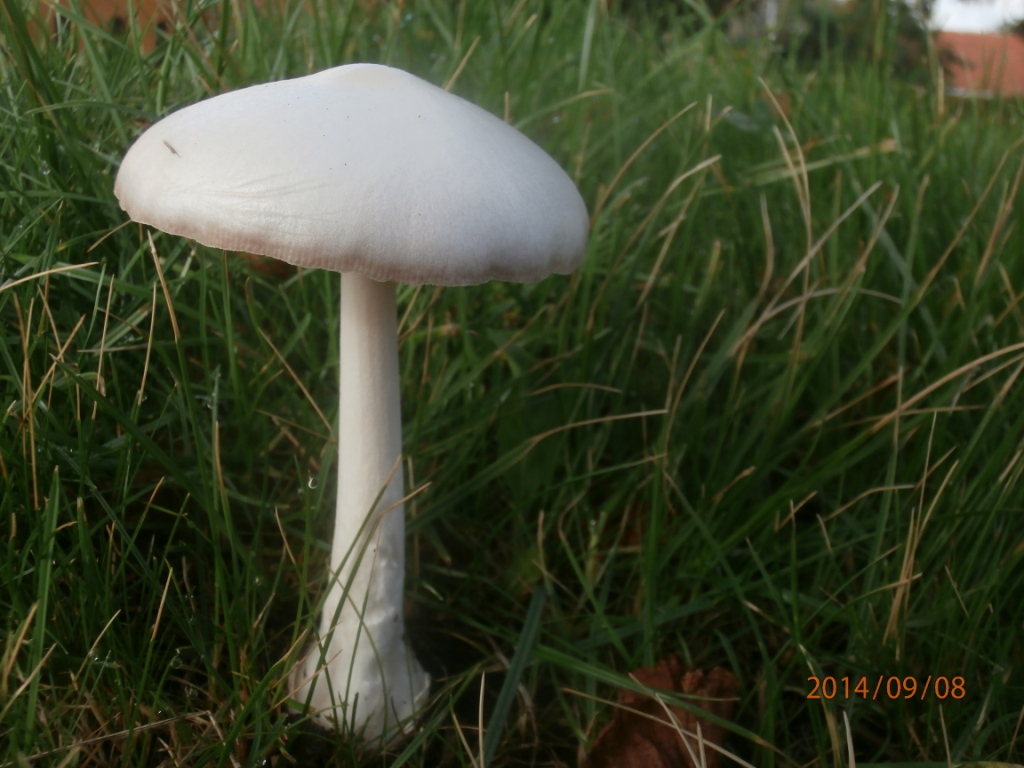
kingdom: Fungi
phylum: Basidiomycota
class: Agaricomycetes
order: Agaricales
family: Pluteaceae
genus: Volvopluteus
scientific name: Volvopluteus gloiocephalus
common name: høj posesvamp
